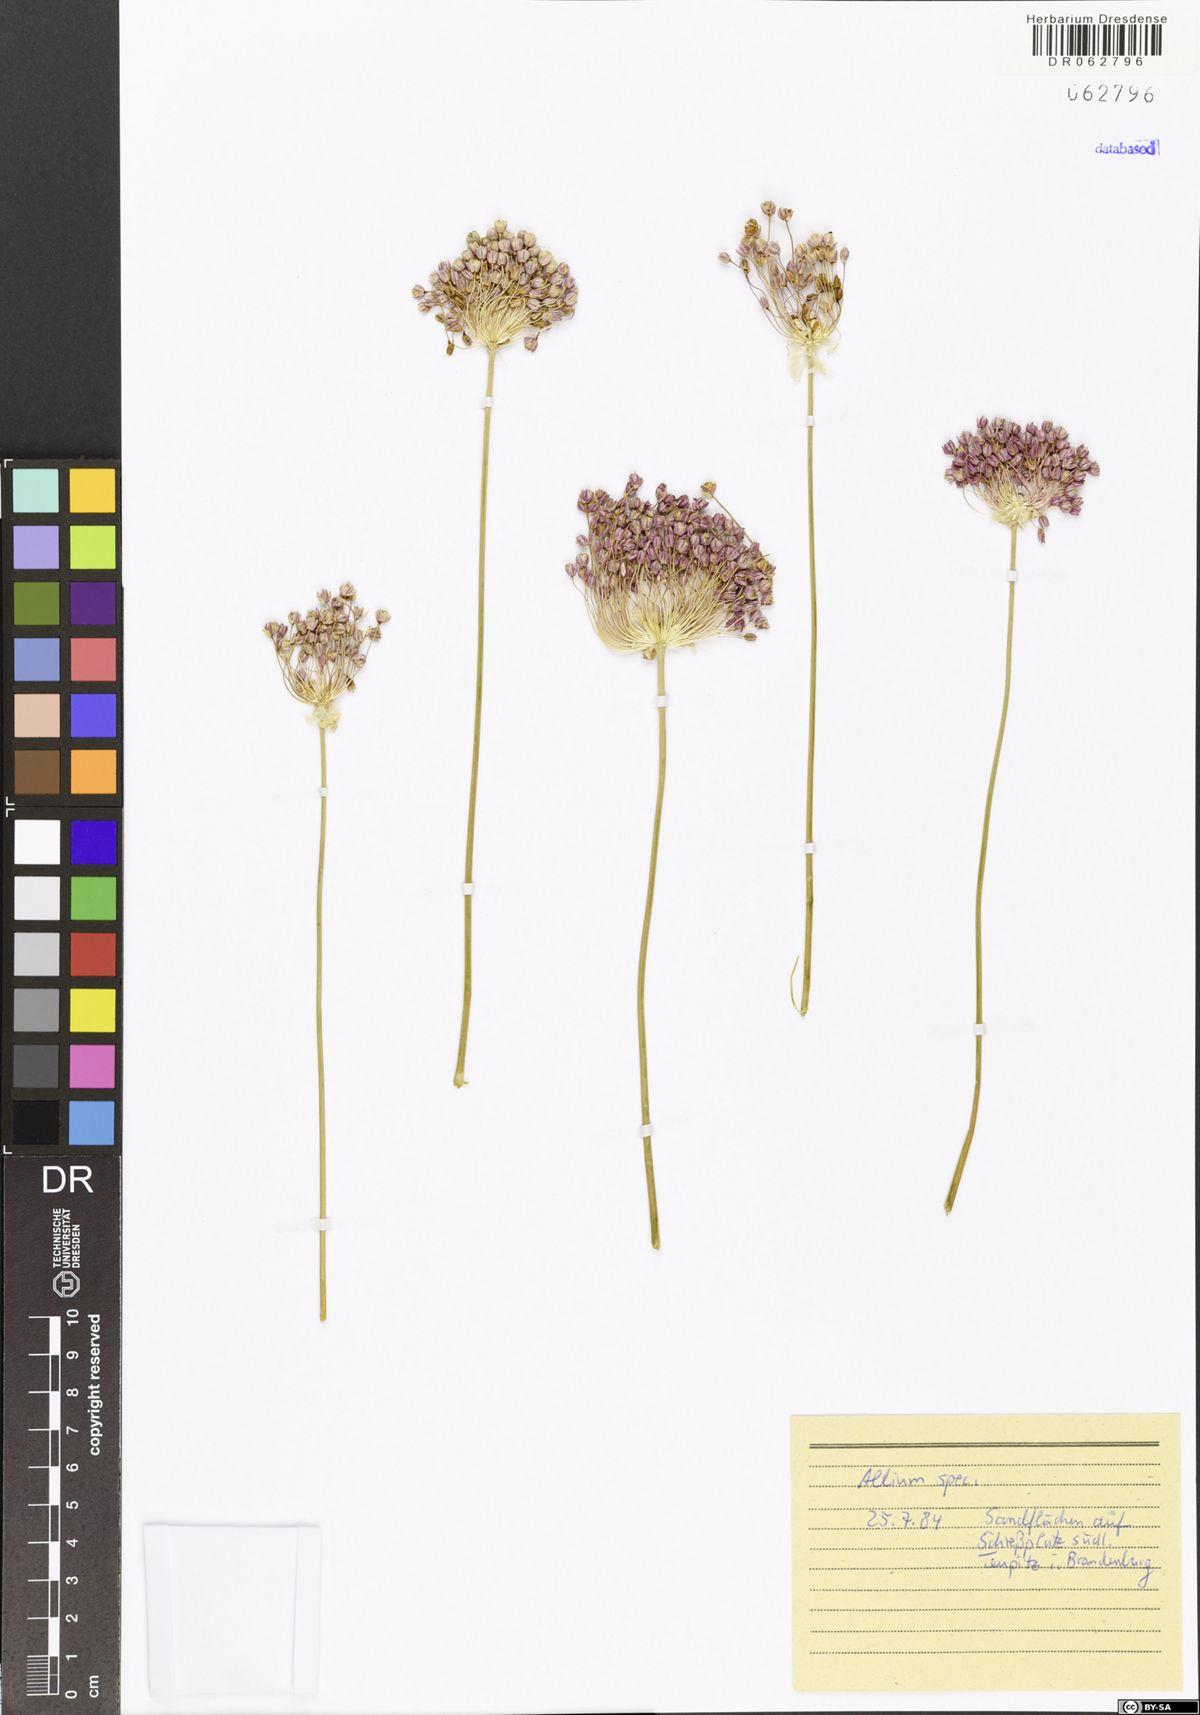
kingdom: Plantae
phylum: Tracheophyta
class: Liliopsida
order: Asparagales
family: Amaryllidaceae
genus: Allium
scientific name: Allium
